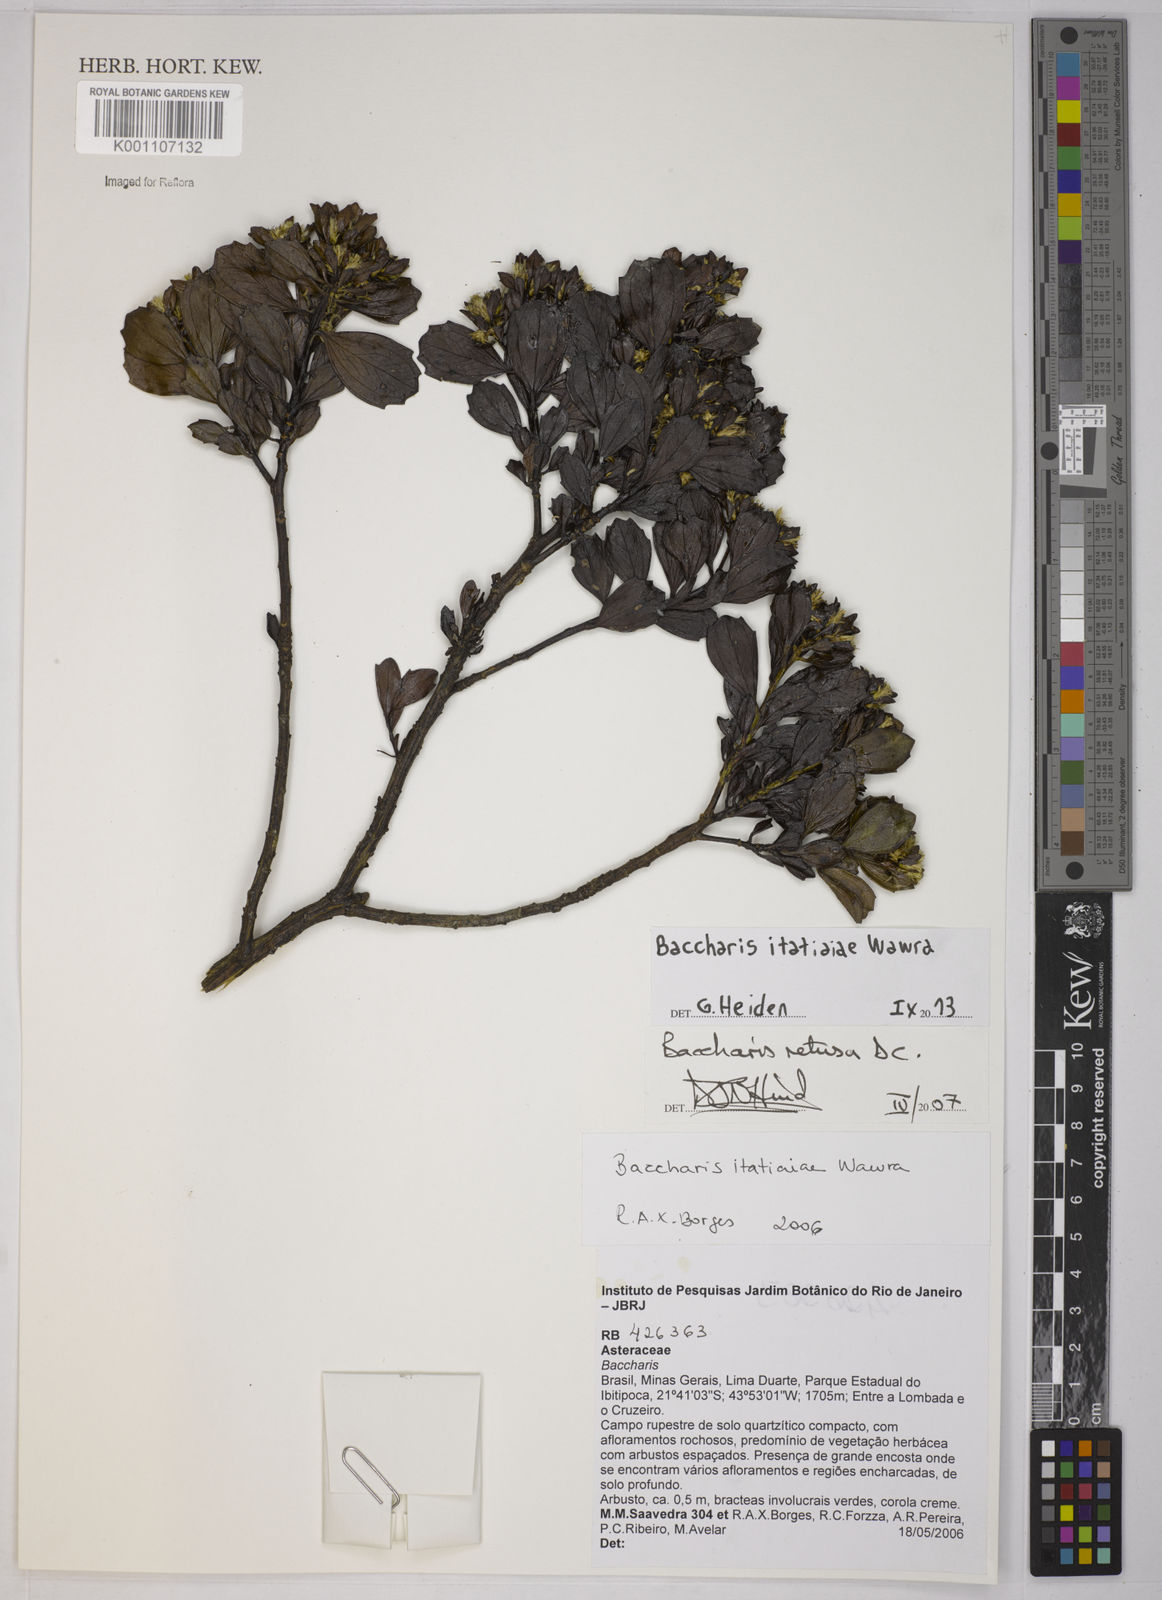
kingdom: Plantae
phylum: Tracheophyta
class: Magnoliopsida
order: Asterales
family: Asteraceae
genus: Baccharis
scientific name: Baccharis itatiaiae
